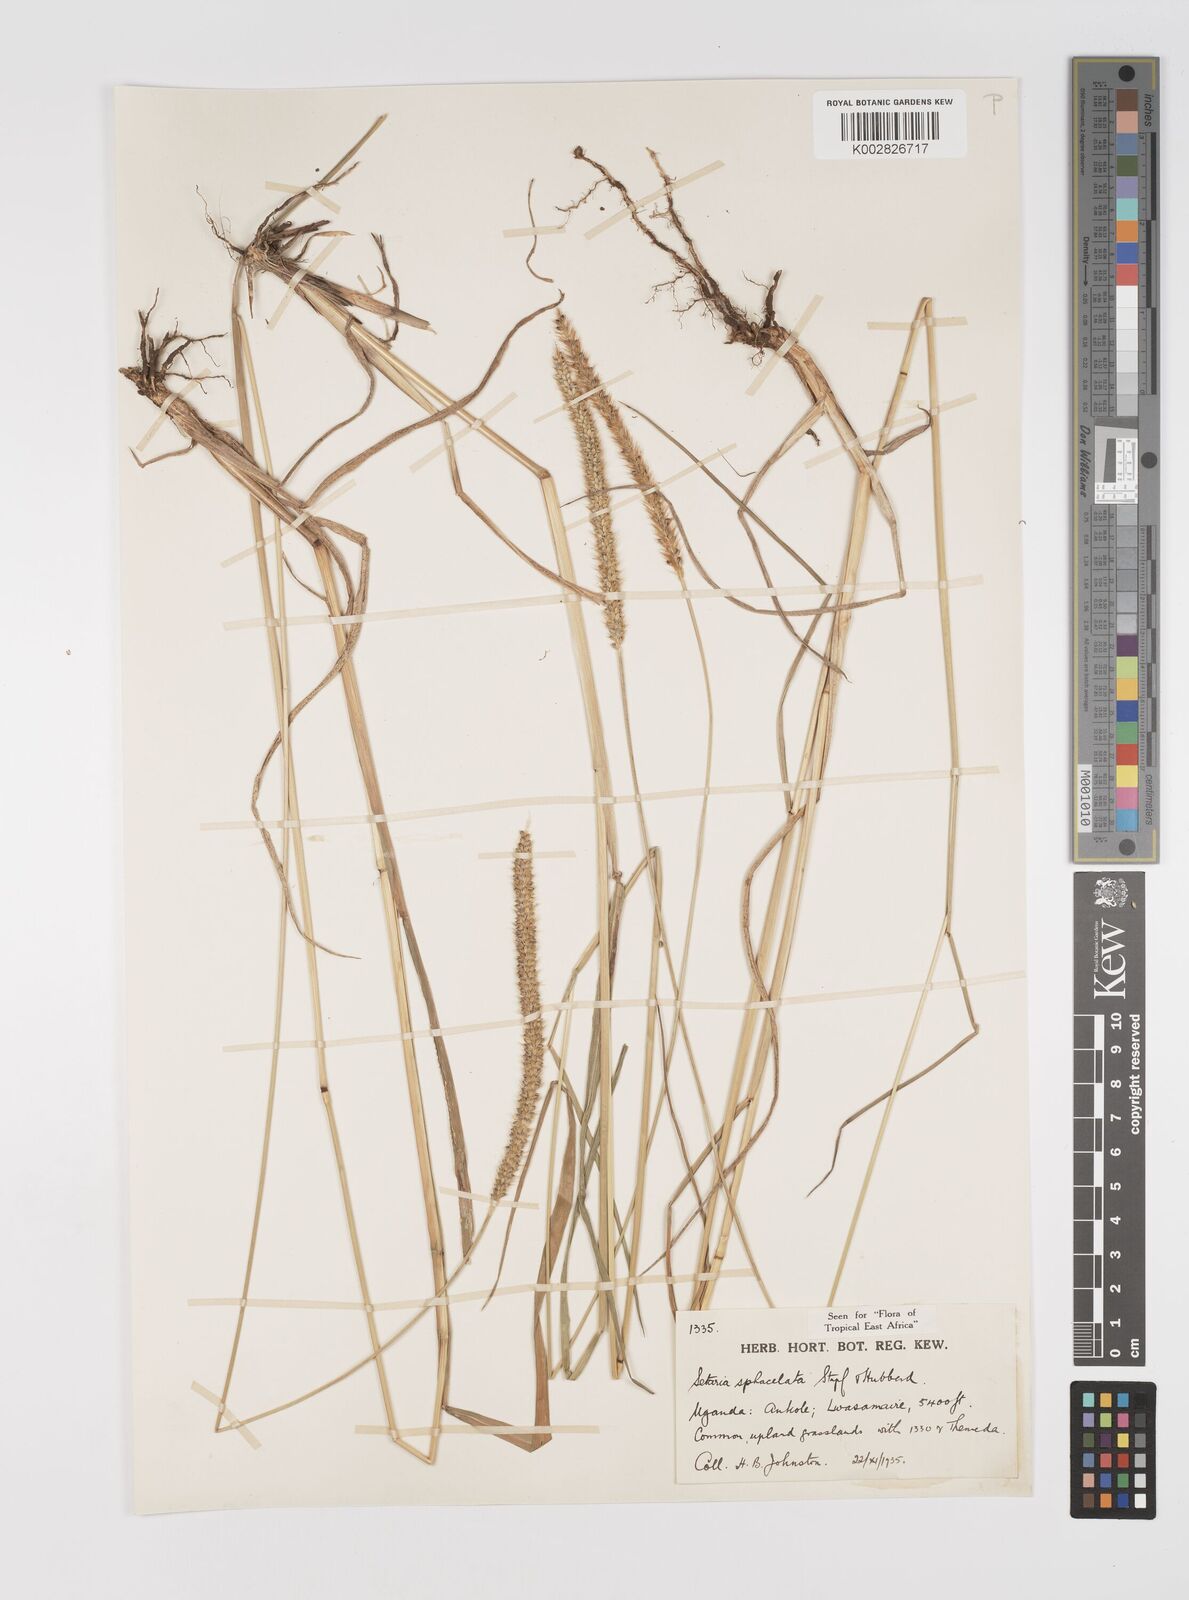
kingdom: Plantae
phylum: Tracheophyta
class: Liliopsida
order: Poales
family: Poaceae
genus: Setaria
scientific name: Setaria sphacelata
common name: African bristlegrass
